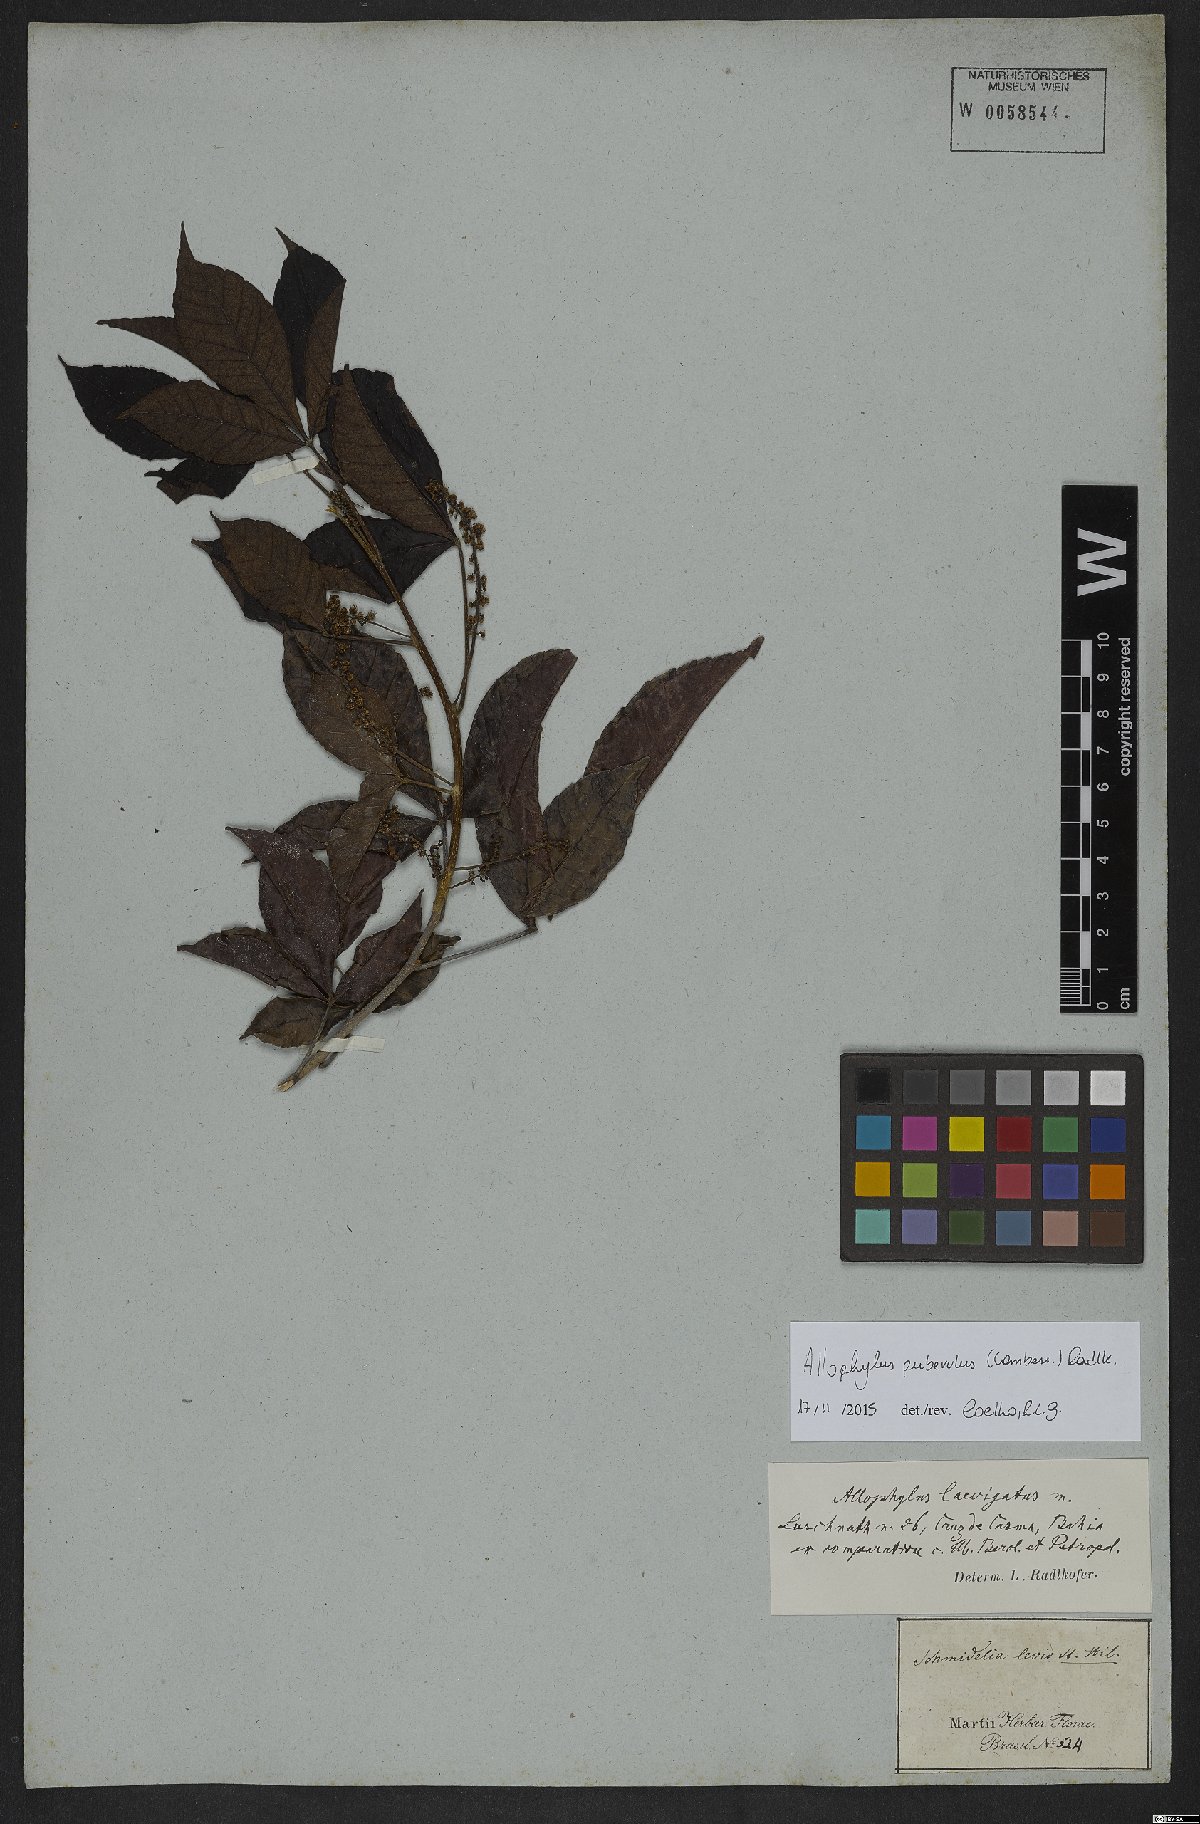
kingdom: Plantae
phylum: Tracheophyta
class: Magnoliopsida
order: Sapindales
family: Sapindaceae
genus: Allophylus
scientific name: Allophylus puberulus
